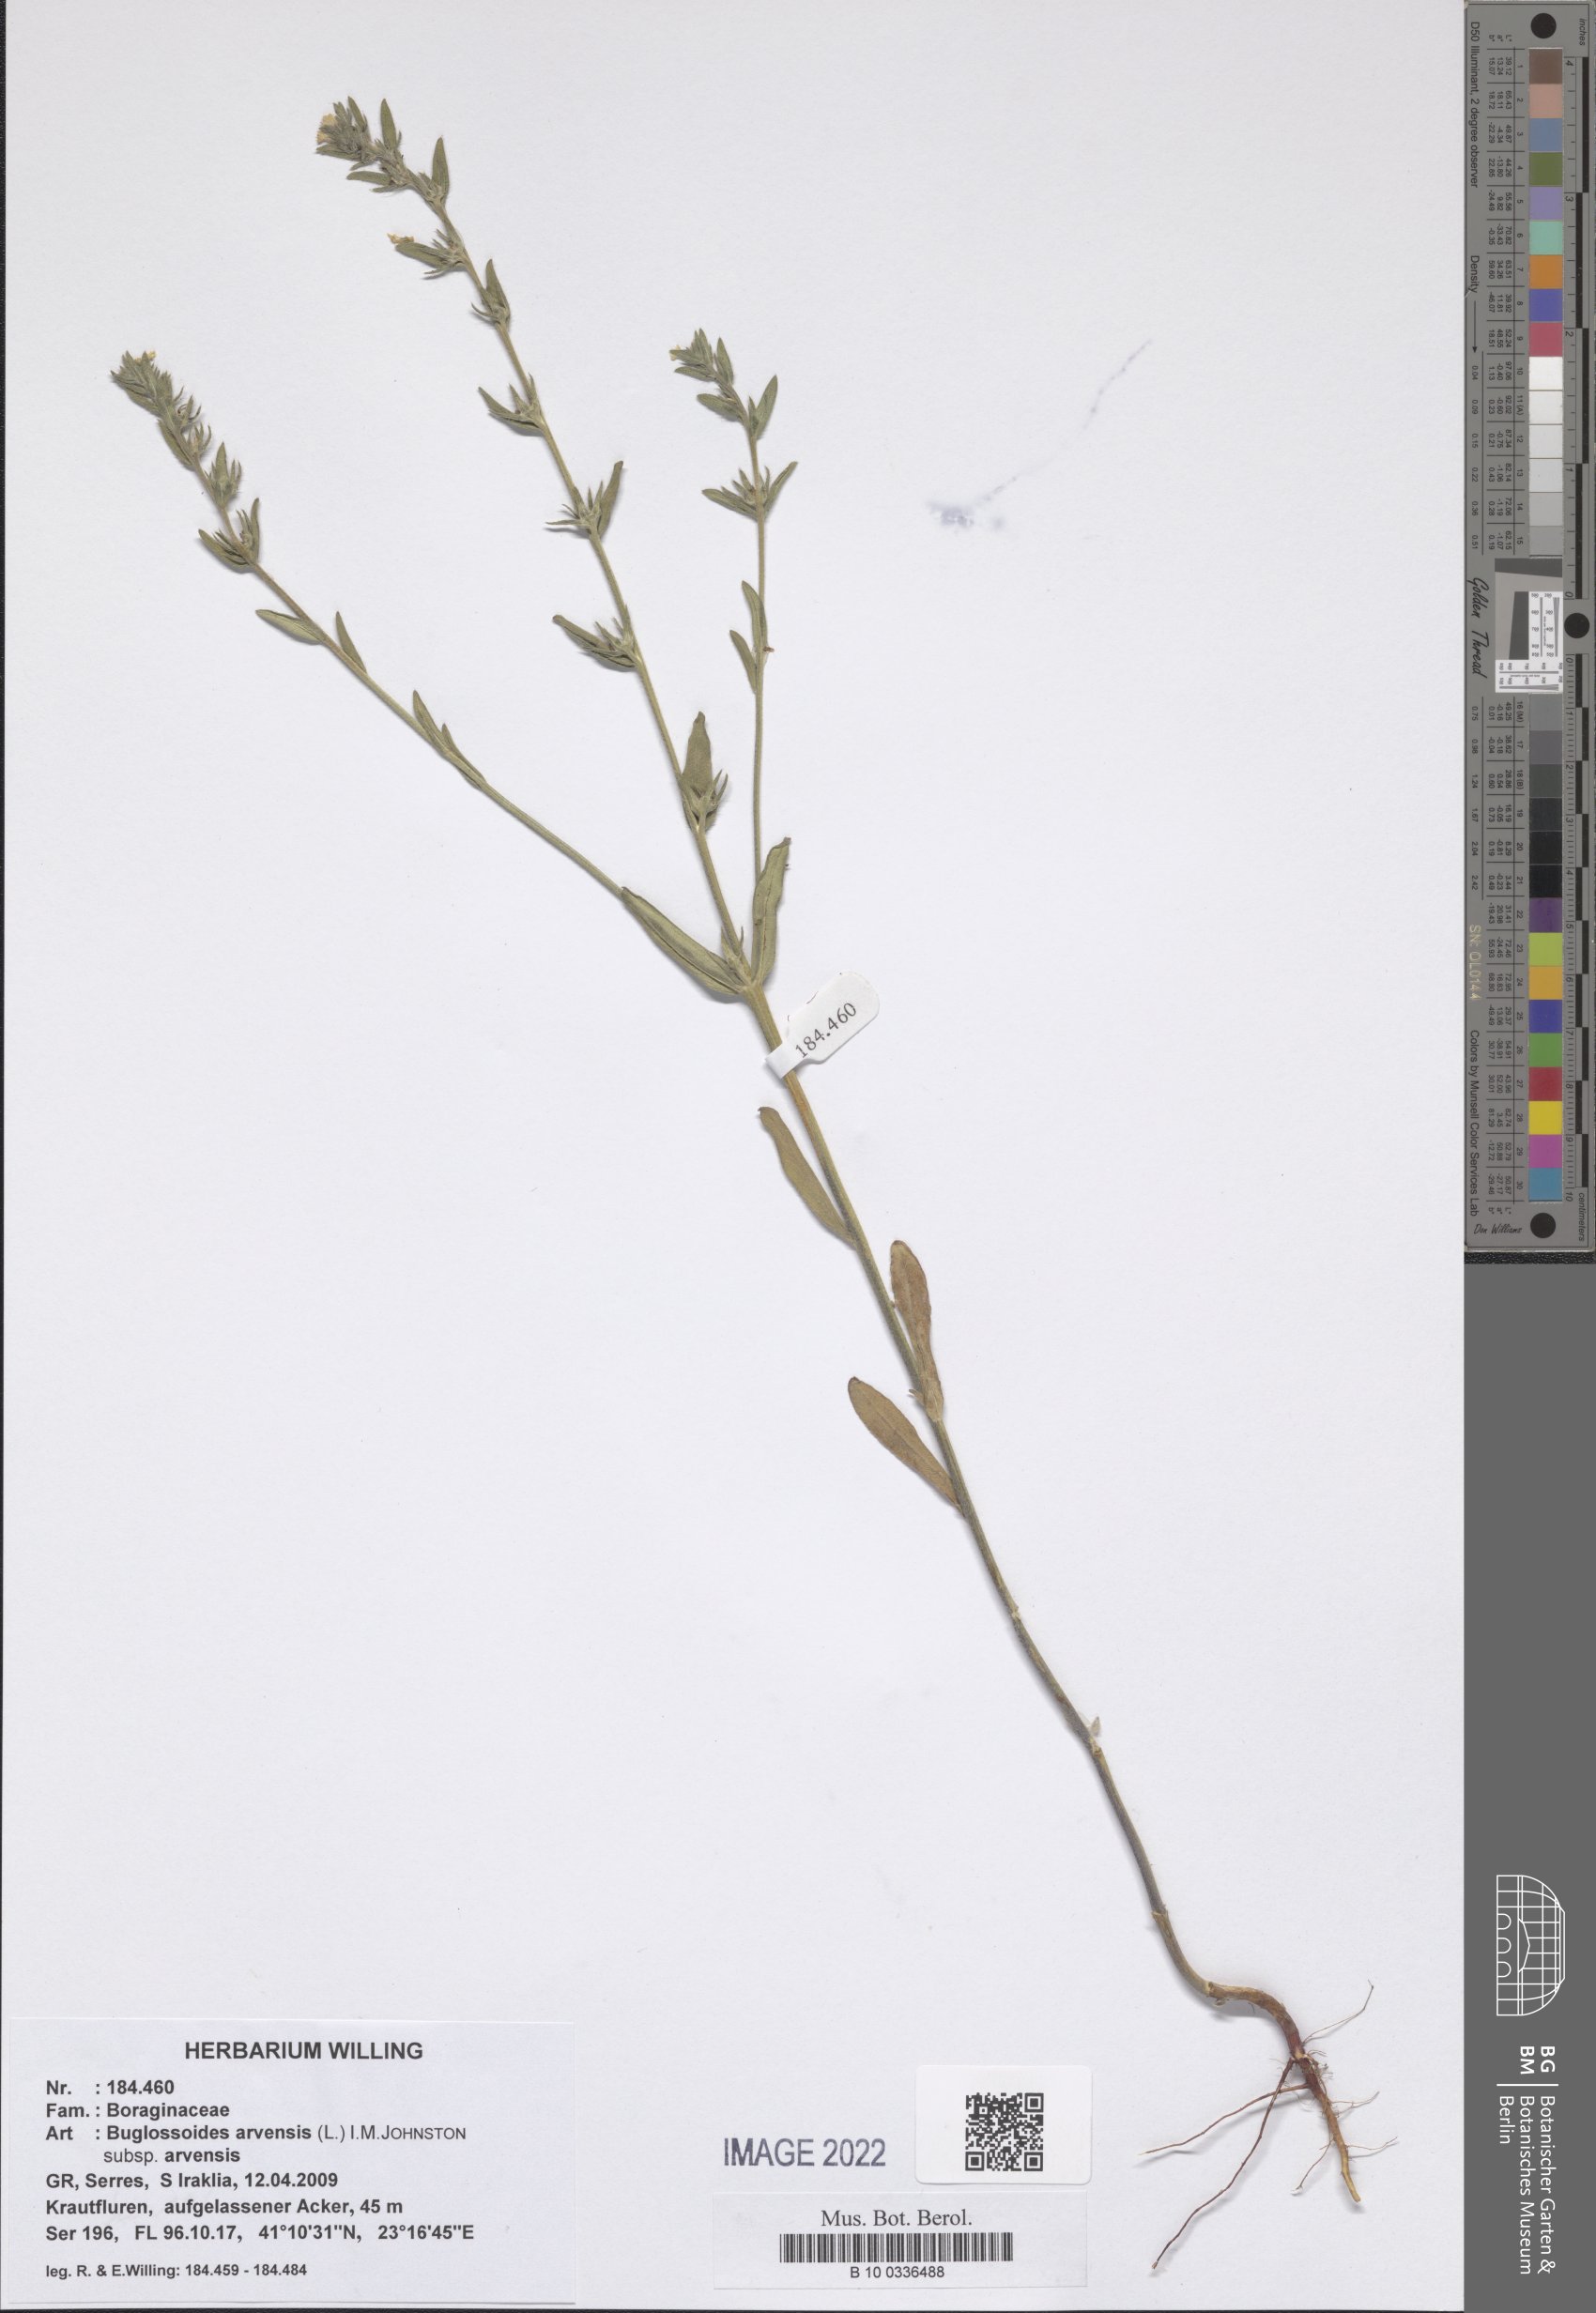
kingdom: Plantae
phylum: Tracheophyta
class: Magnoliopsida
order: Boraginales
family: Boraginaceae
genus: Buglossoides
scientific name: Buglossoides arvensis
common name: Corn gromwell
